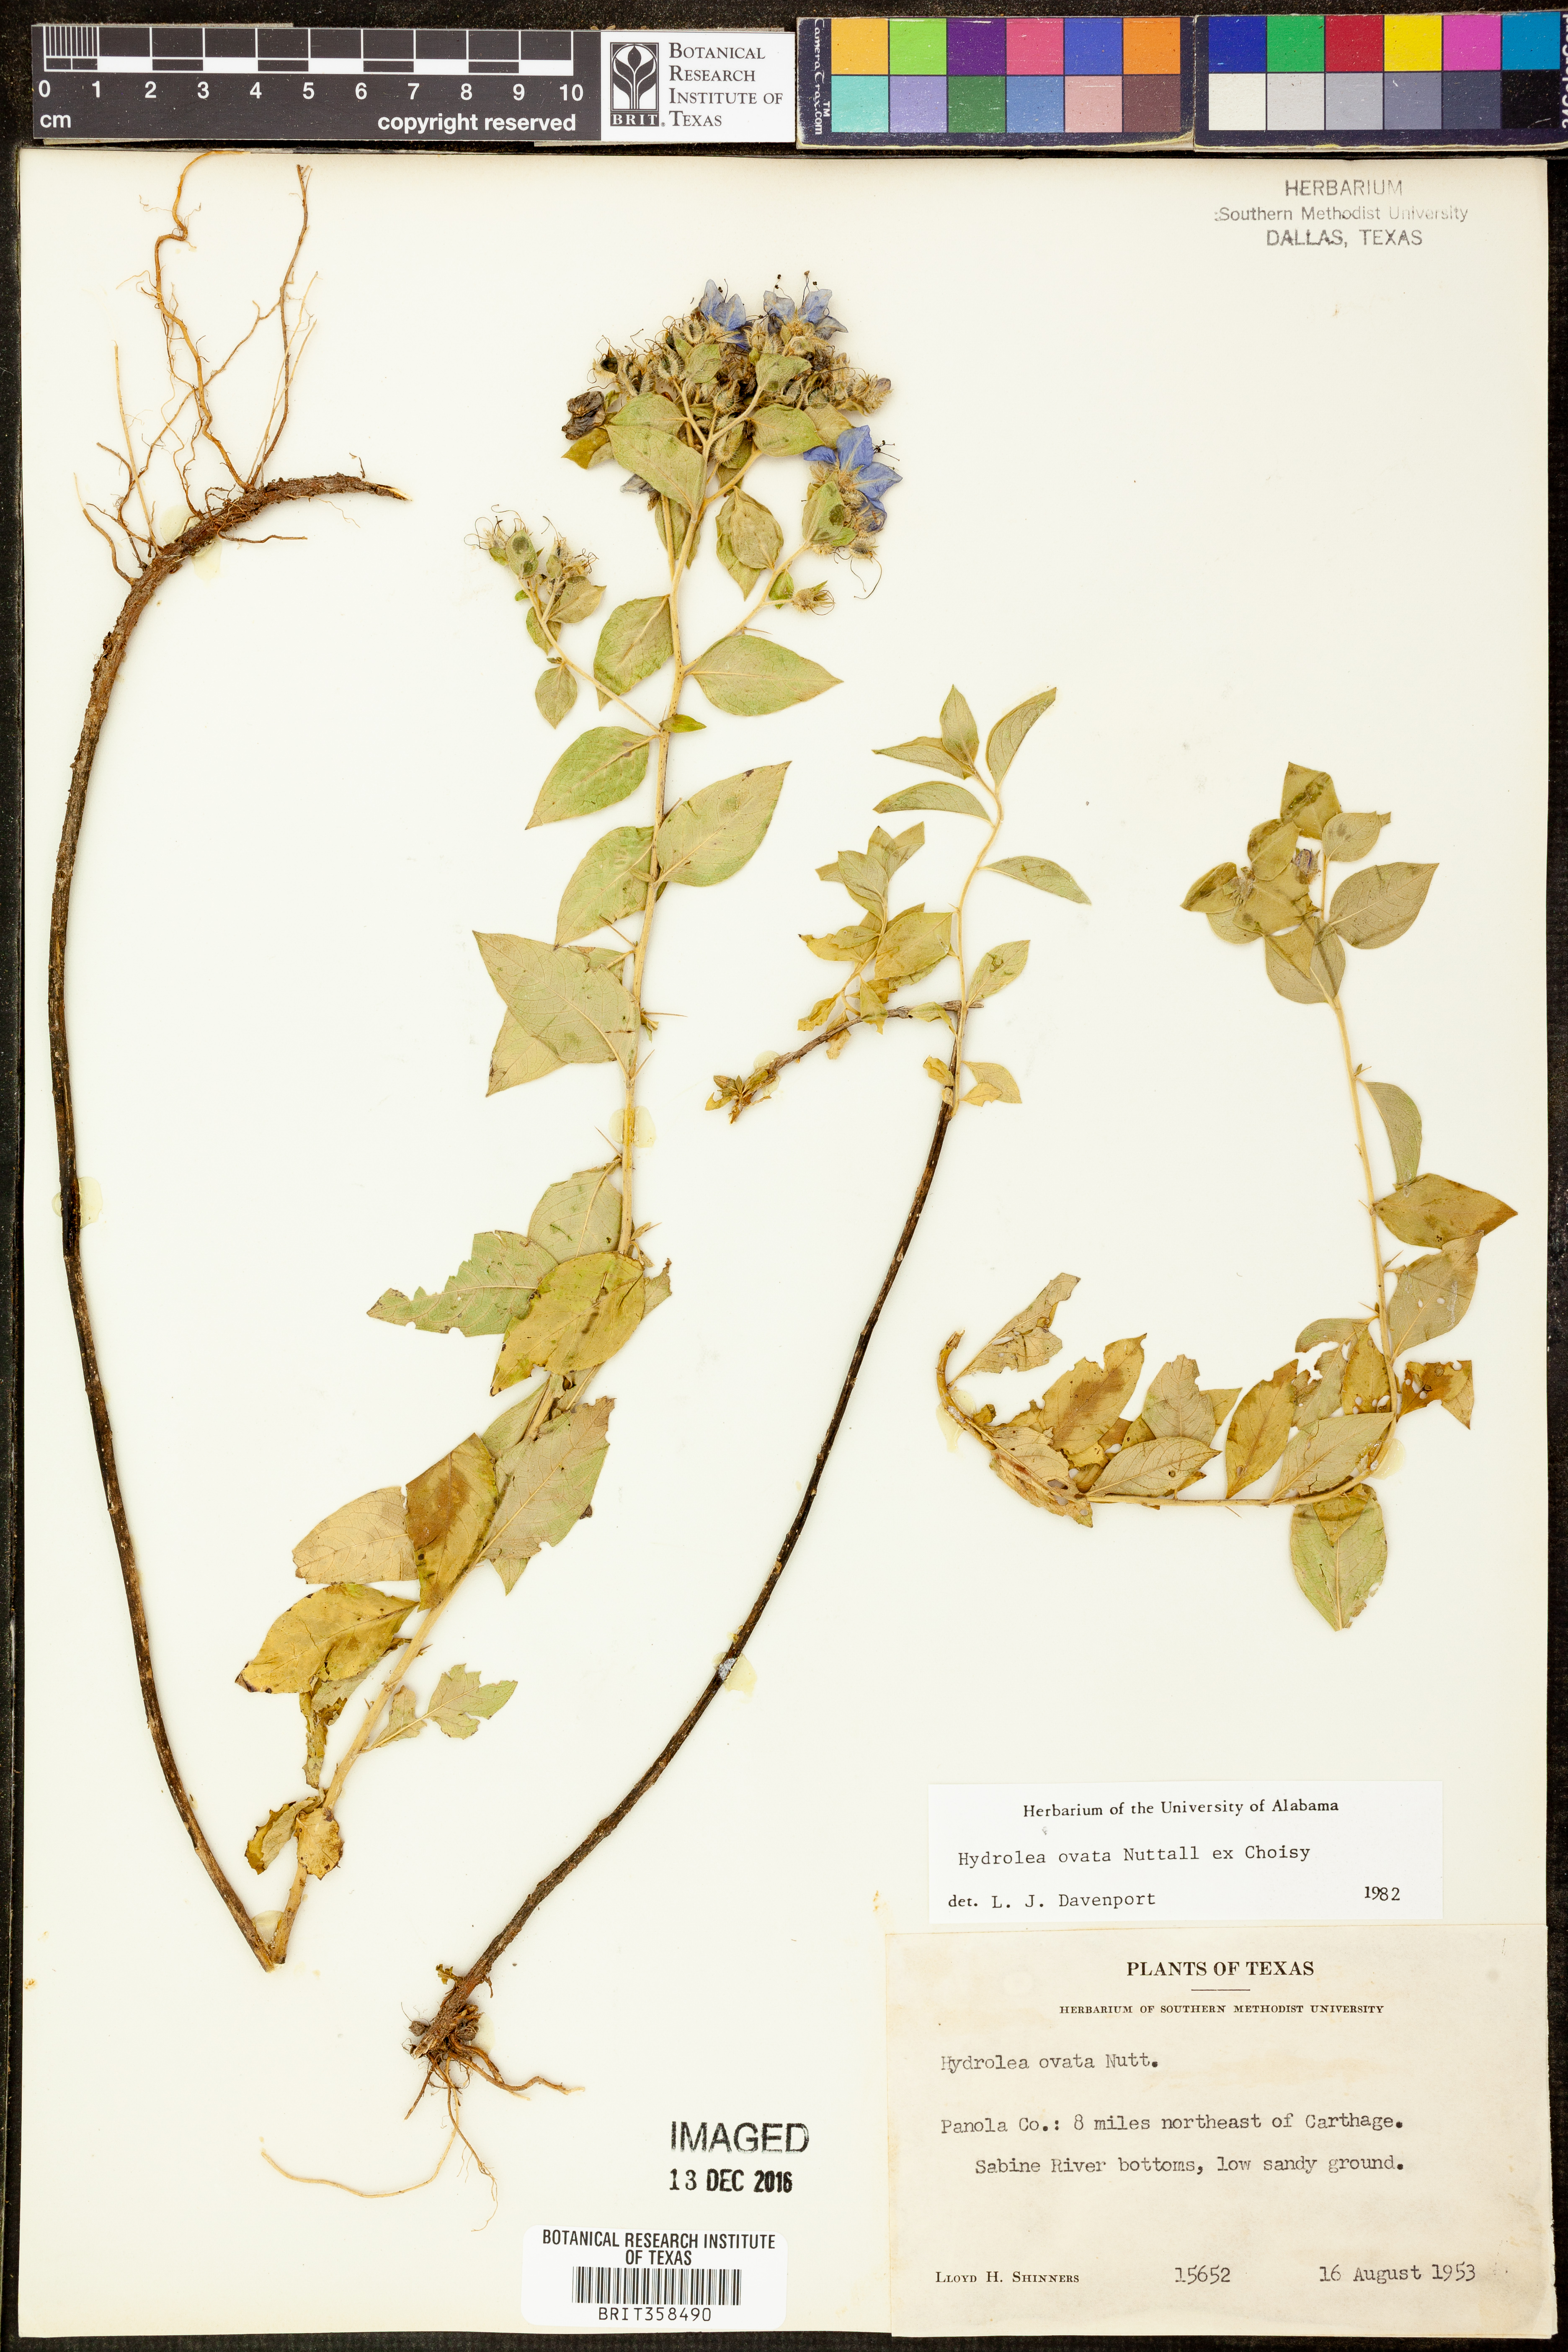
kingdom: Plantae
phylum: Tracheophyta
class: Magnoliopsida
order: Solanales
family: Hydroleaceae
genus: Hydrolea
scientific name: Hydrolea ovata
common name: Ovate false fiddleleaf
